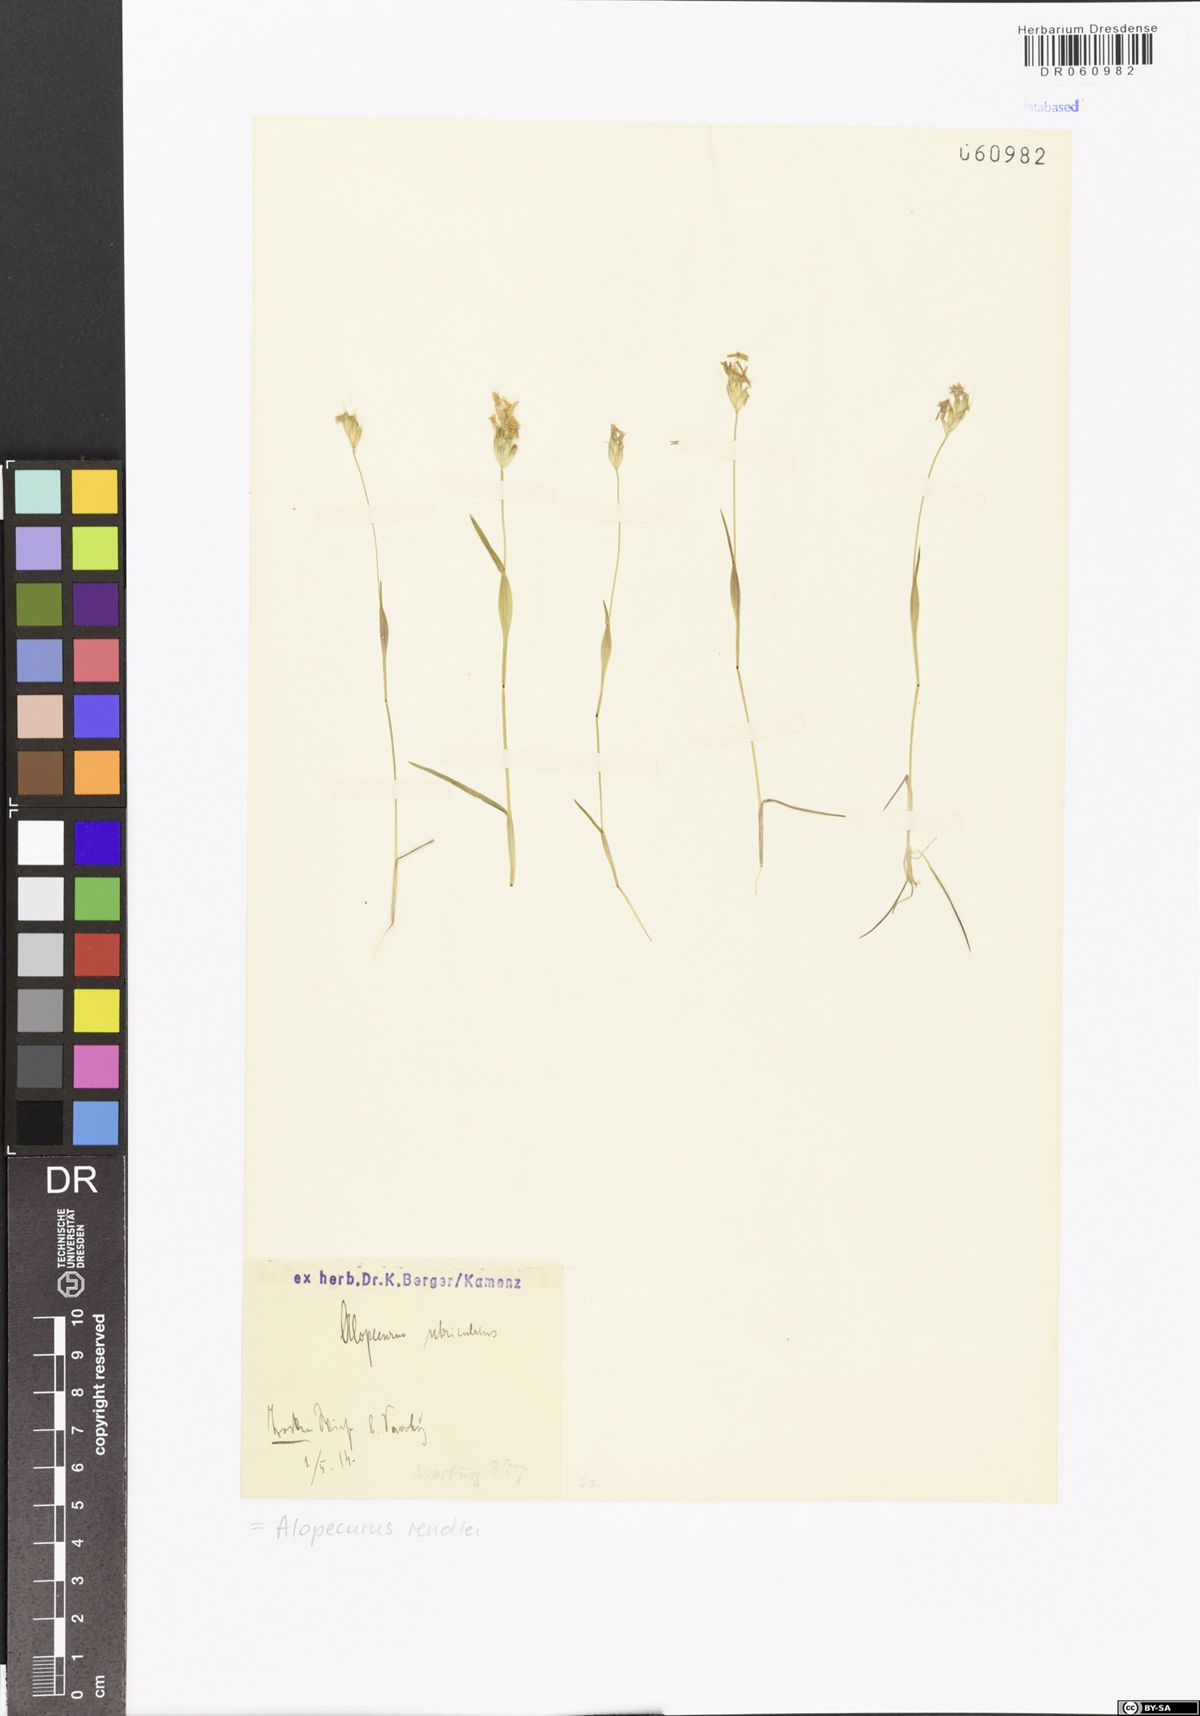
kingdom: Plantae
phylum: Tracheophyta
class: Liliopsida
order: Poales
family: Poaceae
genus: Alopecurus
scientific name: Alopecurus rendlei
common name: Rendle's meadow foxtail
